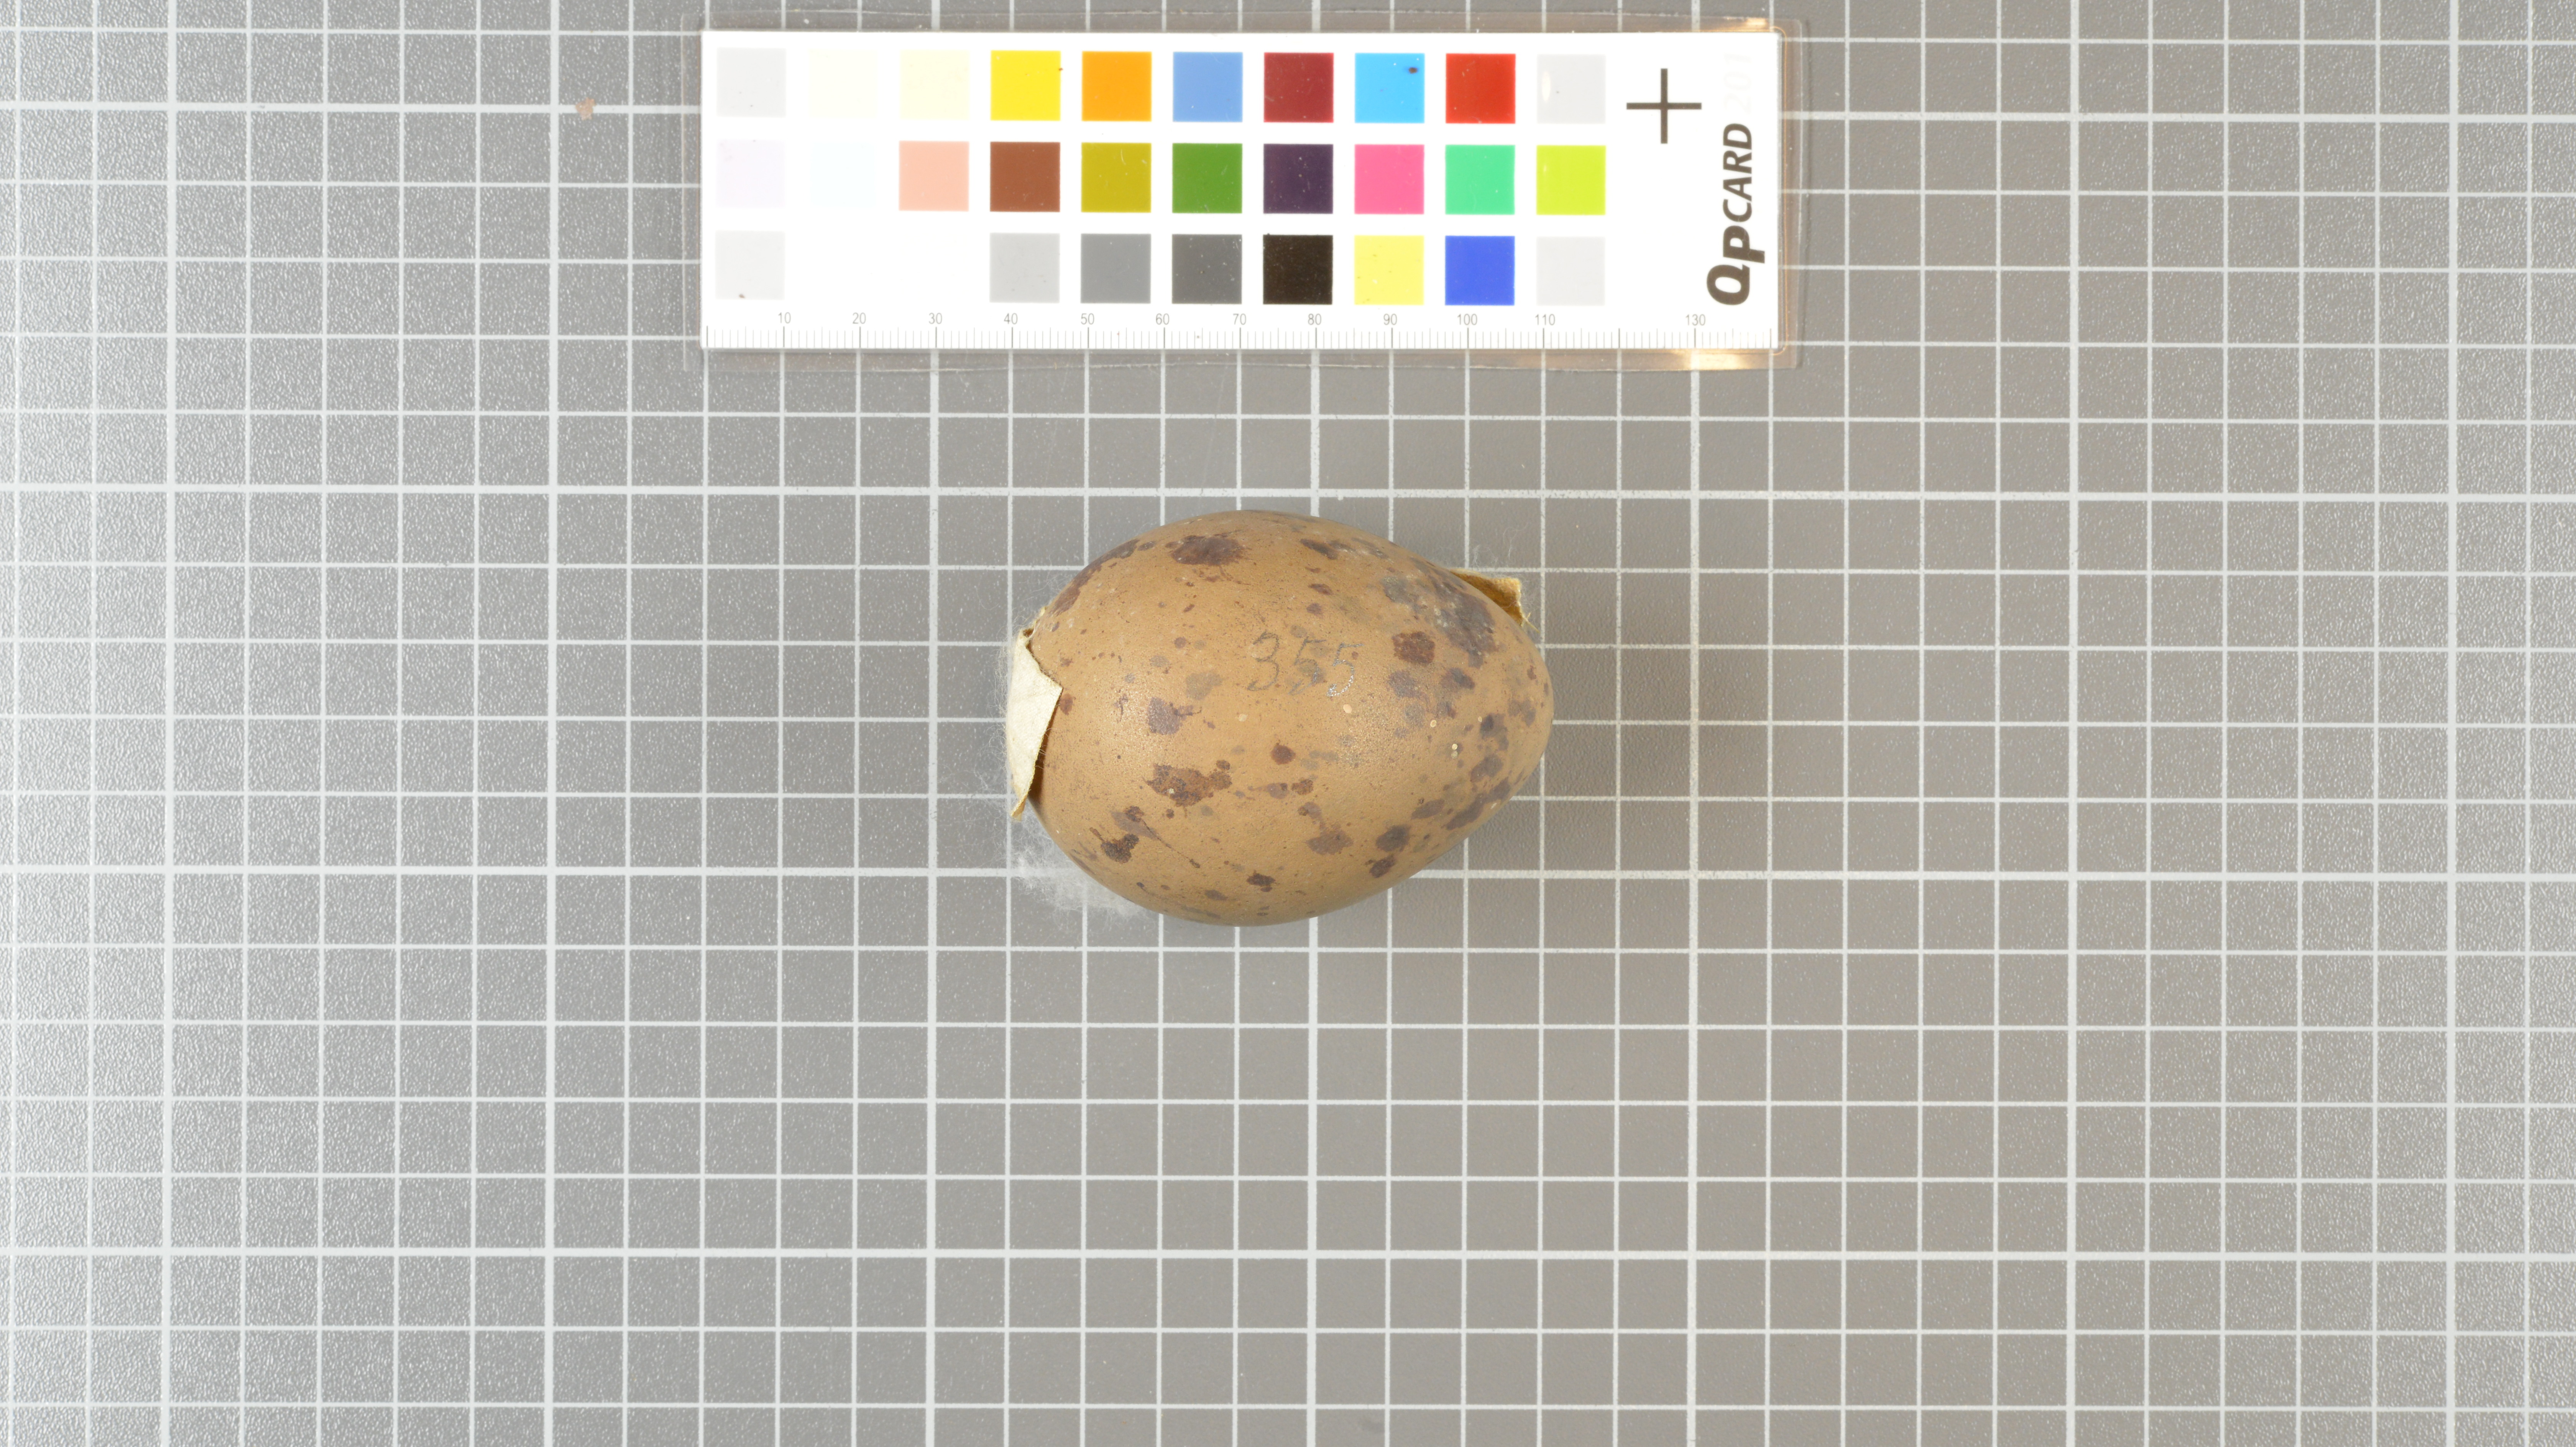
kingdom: Animalia
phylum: Chordata
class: Aves
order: Charadriiformes
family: Stercorariidae
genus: Stercorarius
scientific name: Stercorarius antarcticus
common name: Brown skua
